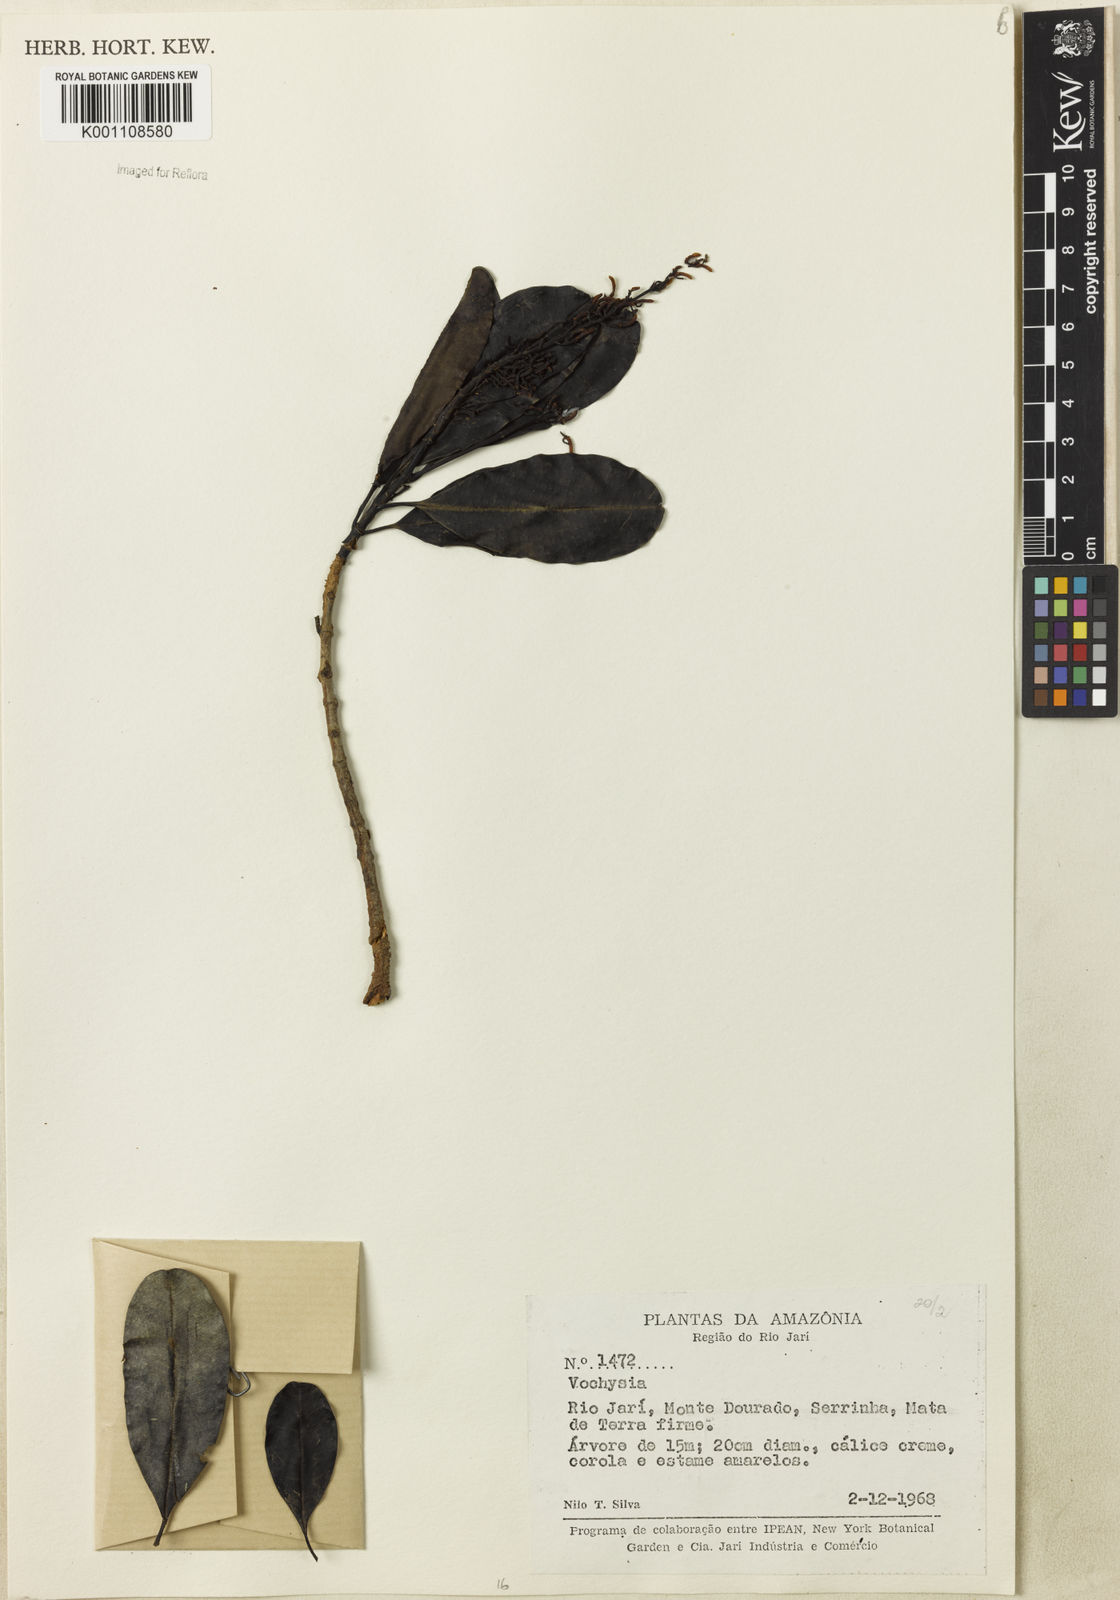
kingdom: Plantae
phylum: Tracheophyta
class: Magnoliopsida
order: Myrtales
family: Vochysiaceae
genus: Vochysia
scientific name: Vochysia schomburgkii
